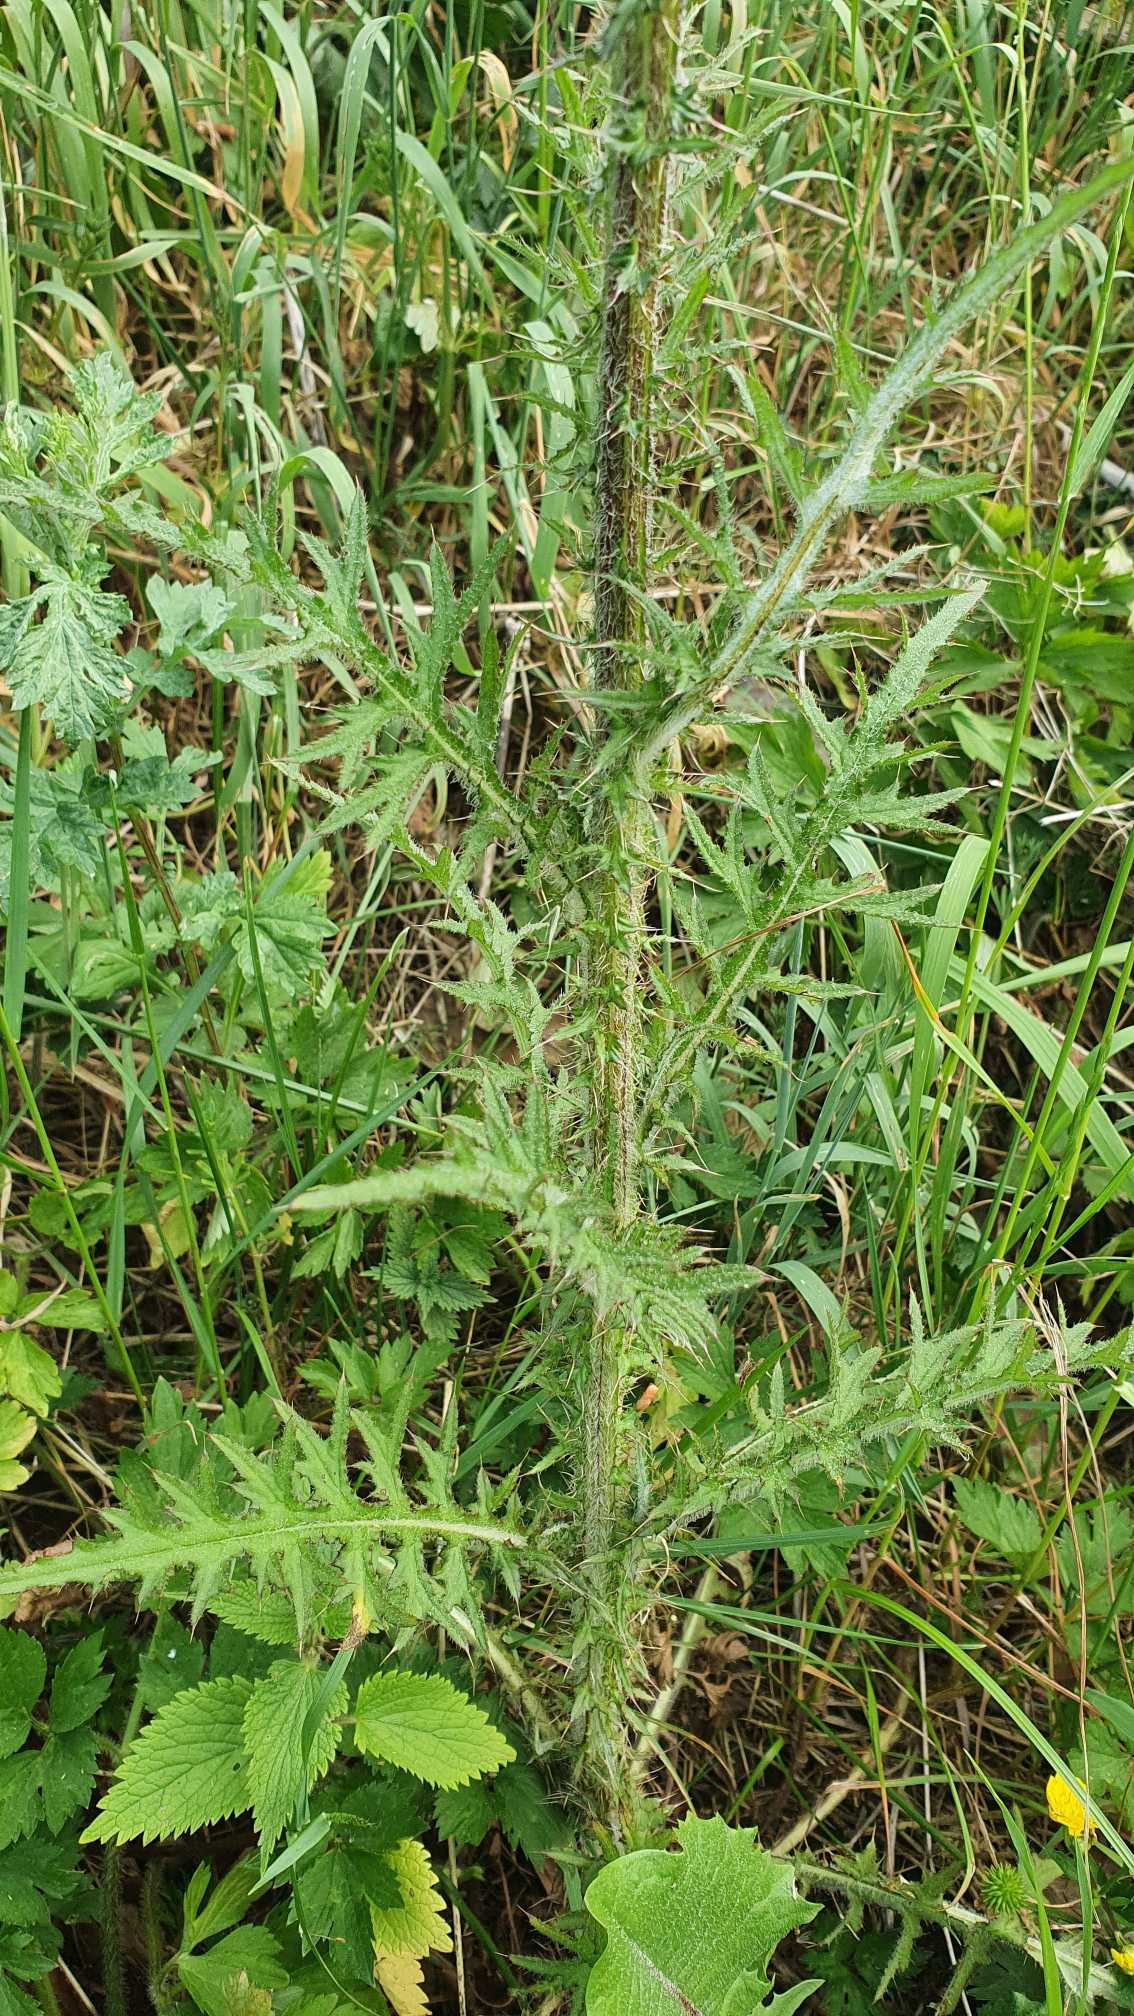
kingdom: Plantae
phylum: Tracheophyta
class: Magnoliopsida
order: Asterales
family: Asteraceae
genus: Cirsium
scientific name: Cirsium palustre
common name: Kær-tidsel
